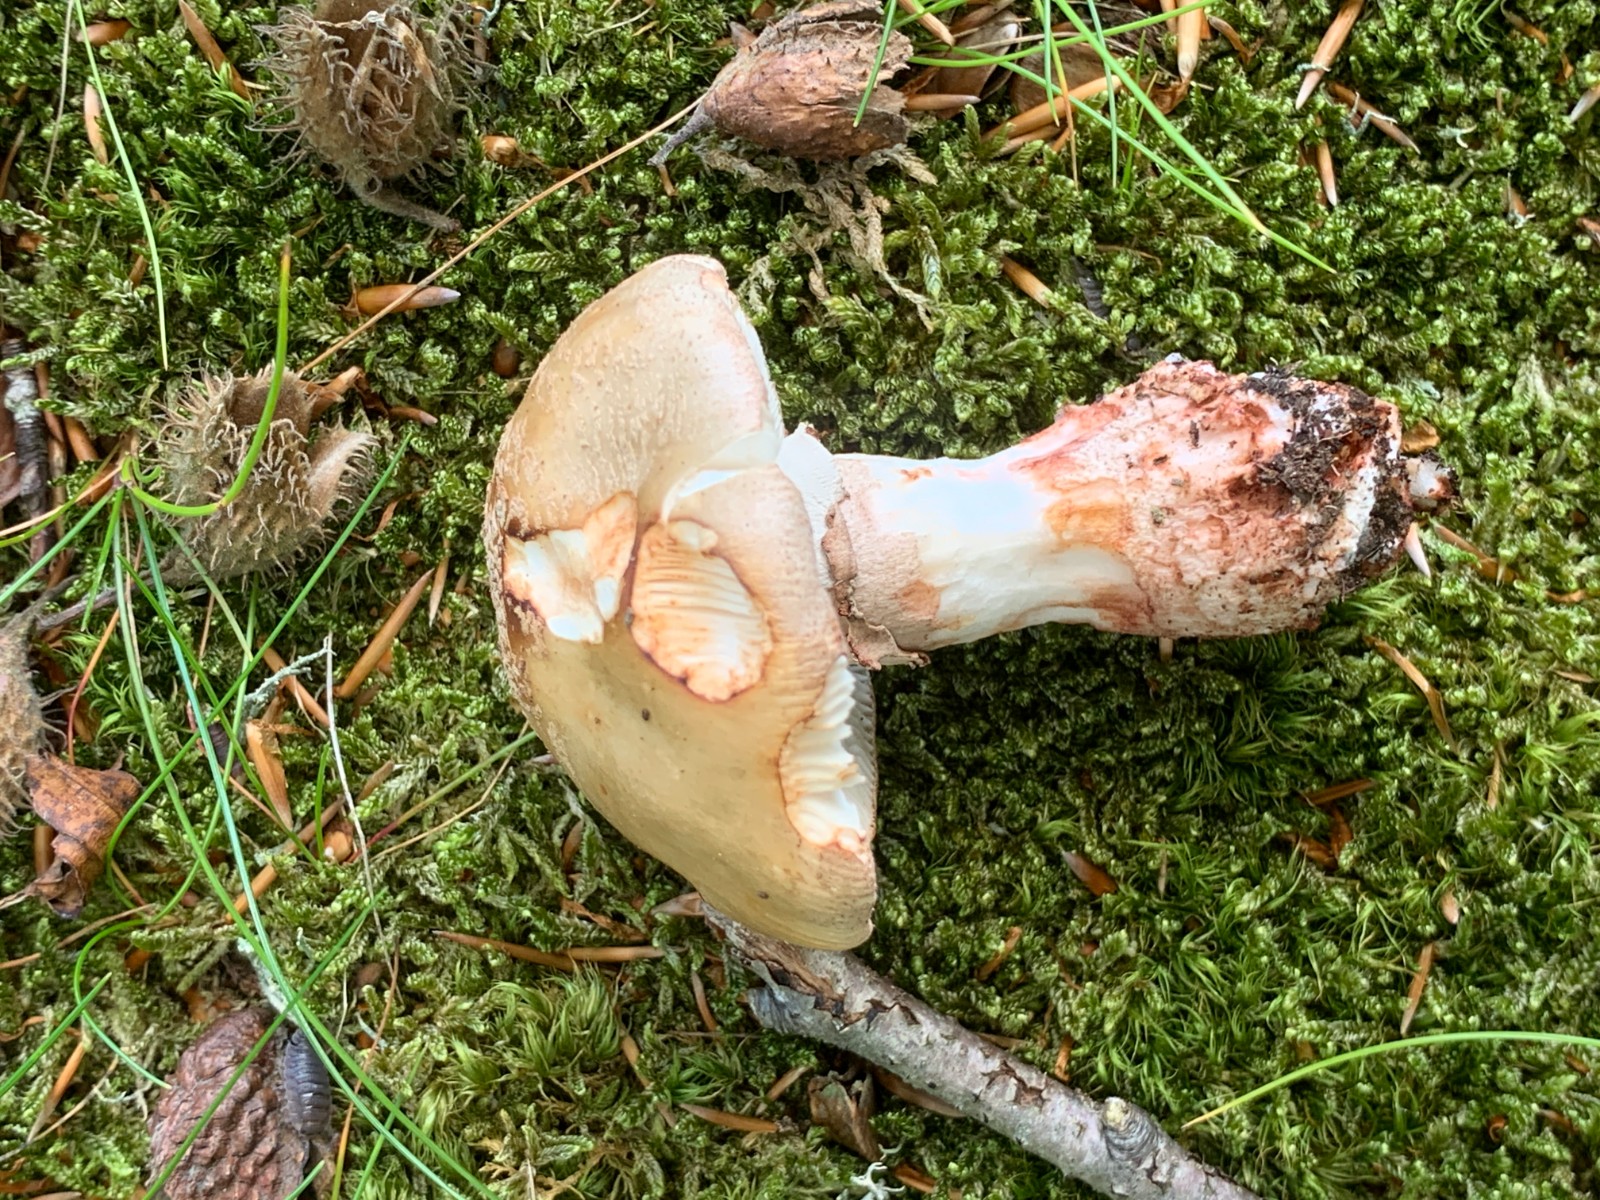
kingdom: Fungi
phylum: Basidiomycota
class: Agaricomycetes
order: Agaricales
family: Amanitaceae
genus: Amanita
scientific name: Amanita rubescens
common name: rødmende fluesvamp
